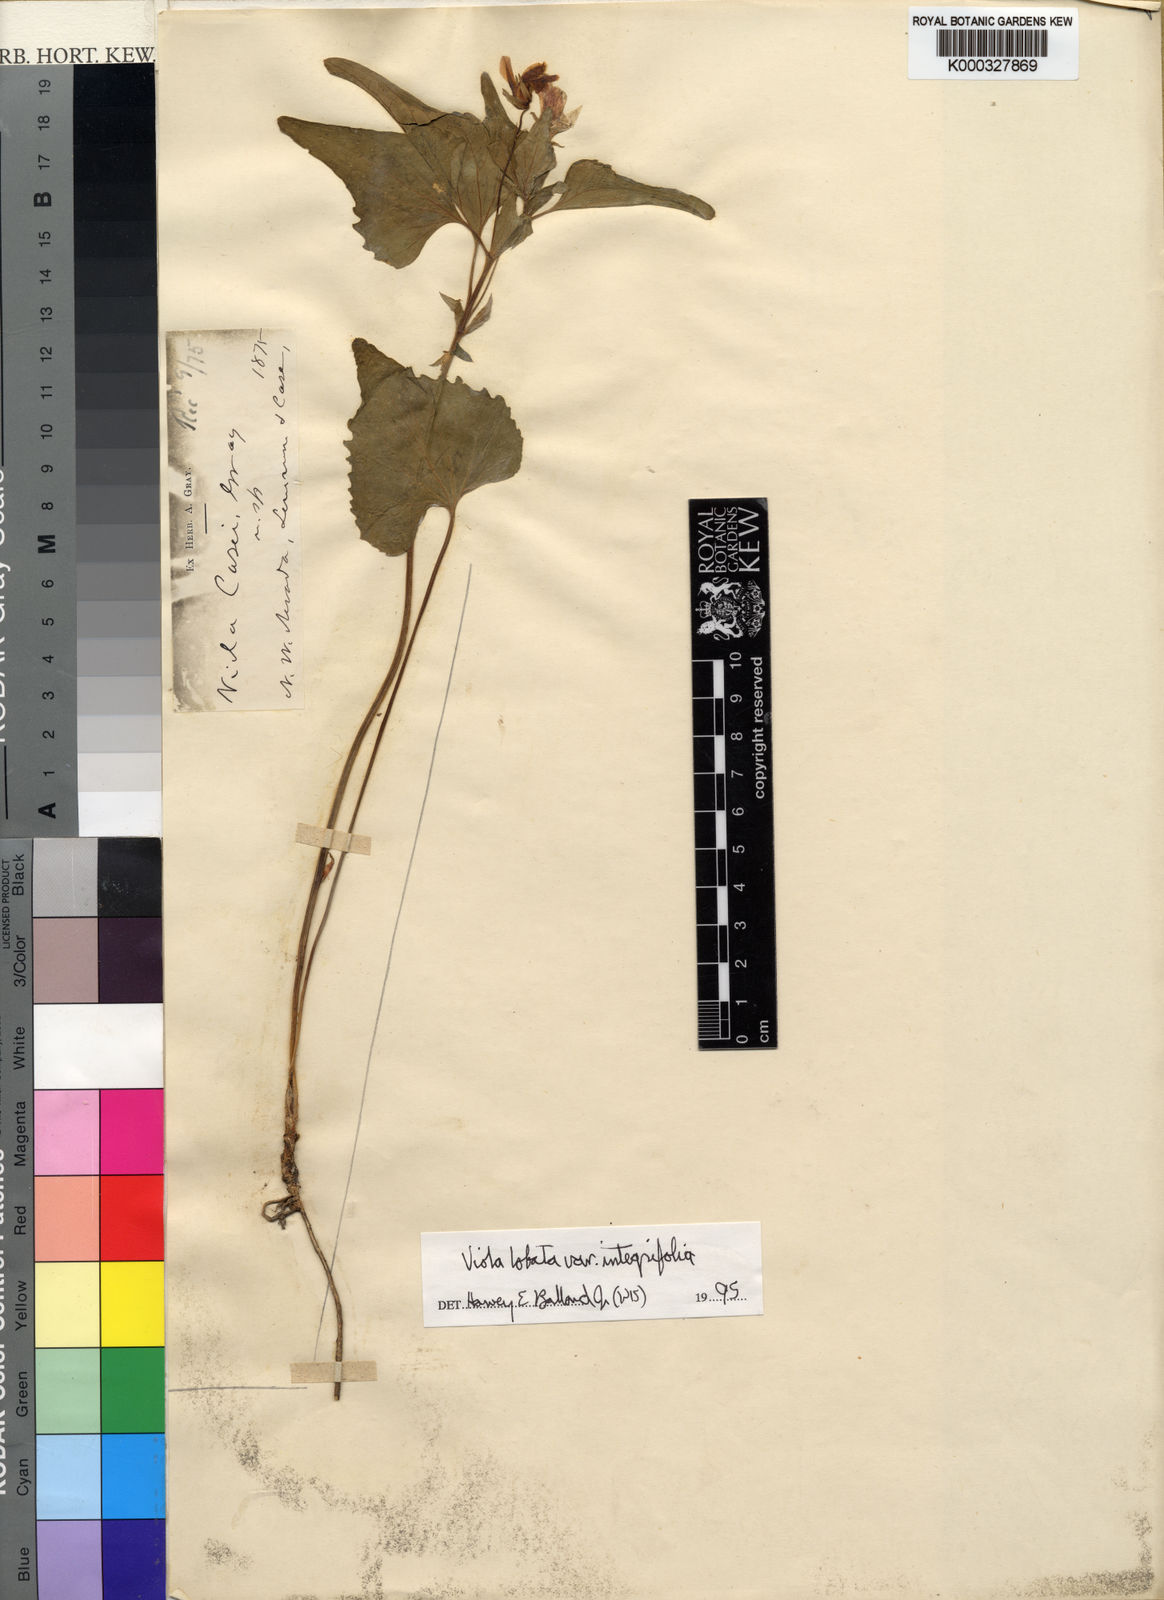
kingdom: Plantae
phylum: Tracheophyta
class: Magnoliopsida
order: Malpighiales
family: Violaceae
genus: Viola
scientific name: Viola
